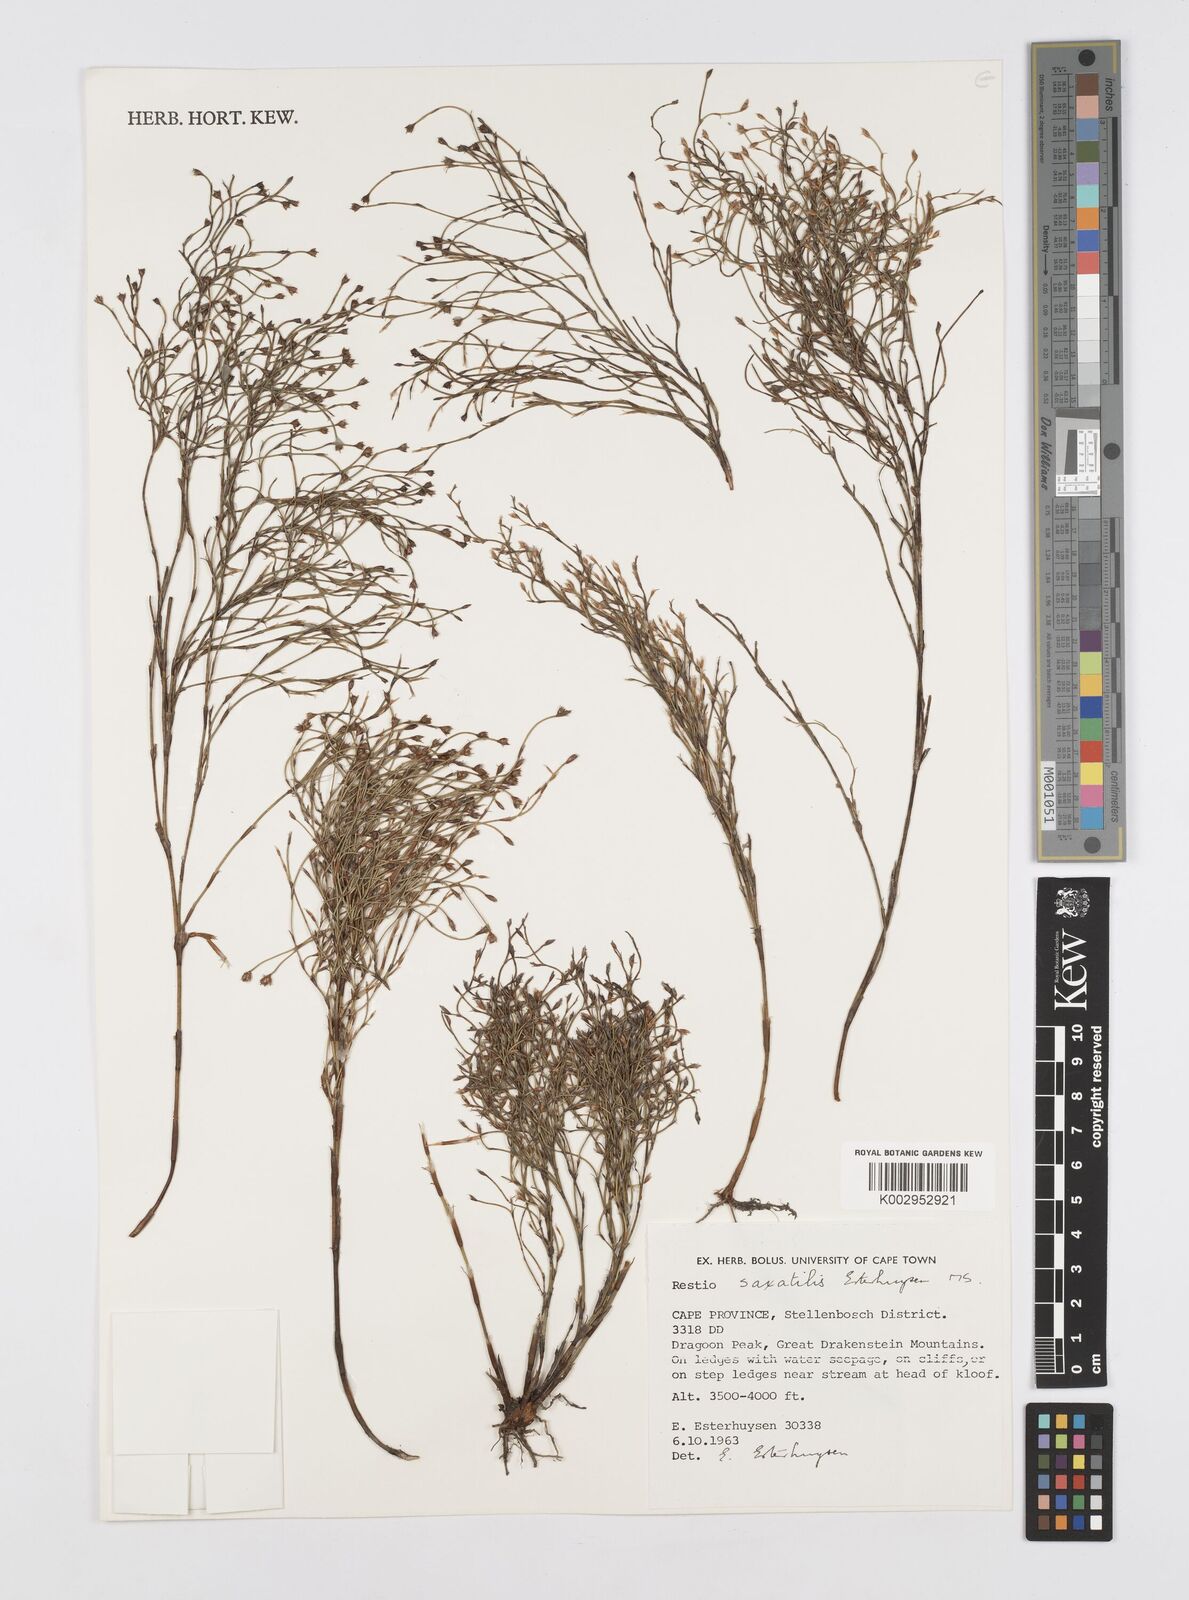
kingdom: Plantae
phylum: Tracheophyta
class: Liliopsida
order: Poales
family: Restionaceae
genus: Restio
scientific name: Restio saxatilis
